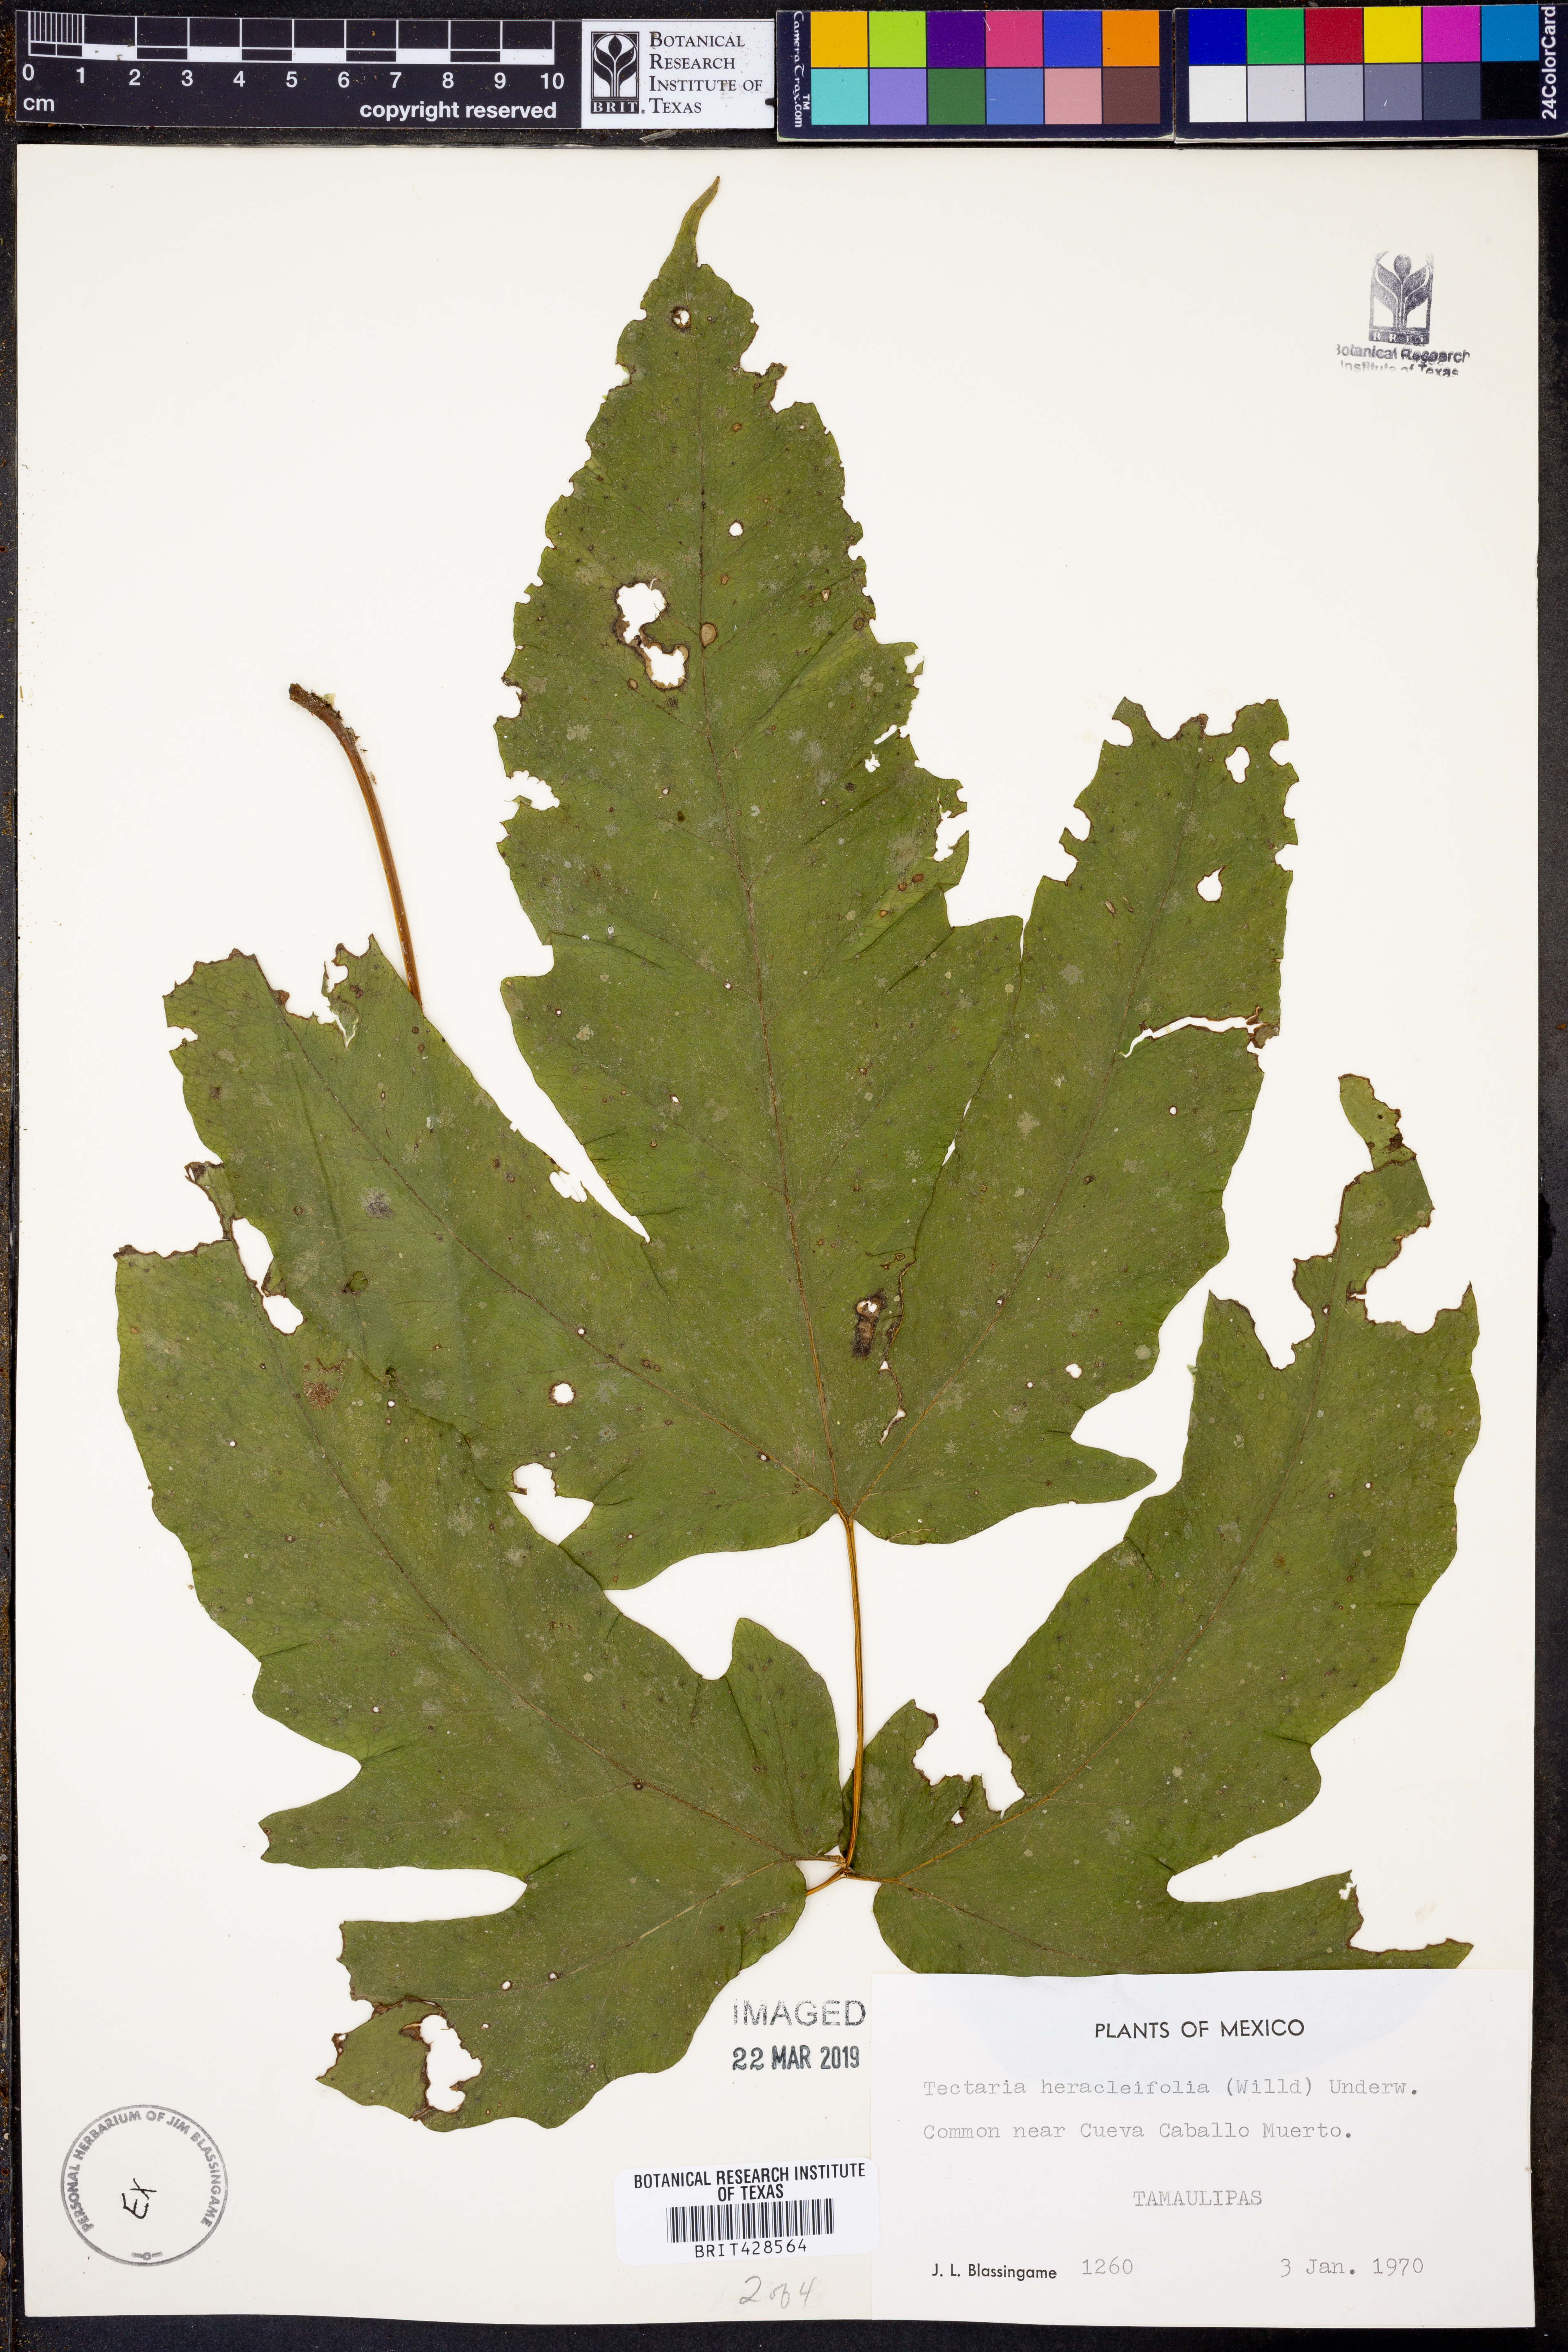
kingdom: Plantae
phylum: Tracheophyta
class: Polypodiopsida
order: Polypodiales
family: Tectariaceae
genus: Tectaria
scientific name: Tectaria heracleifolia
